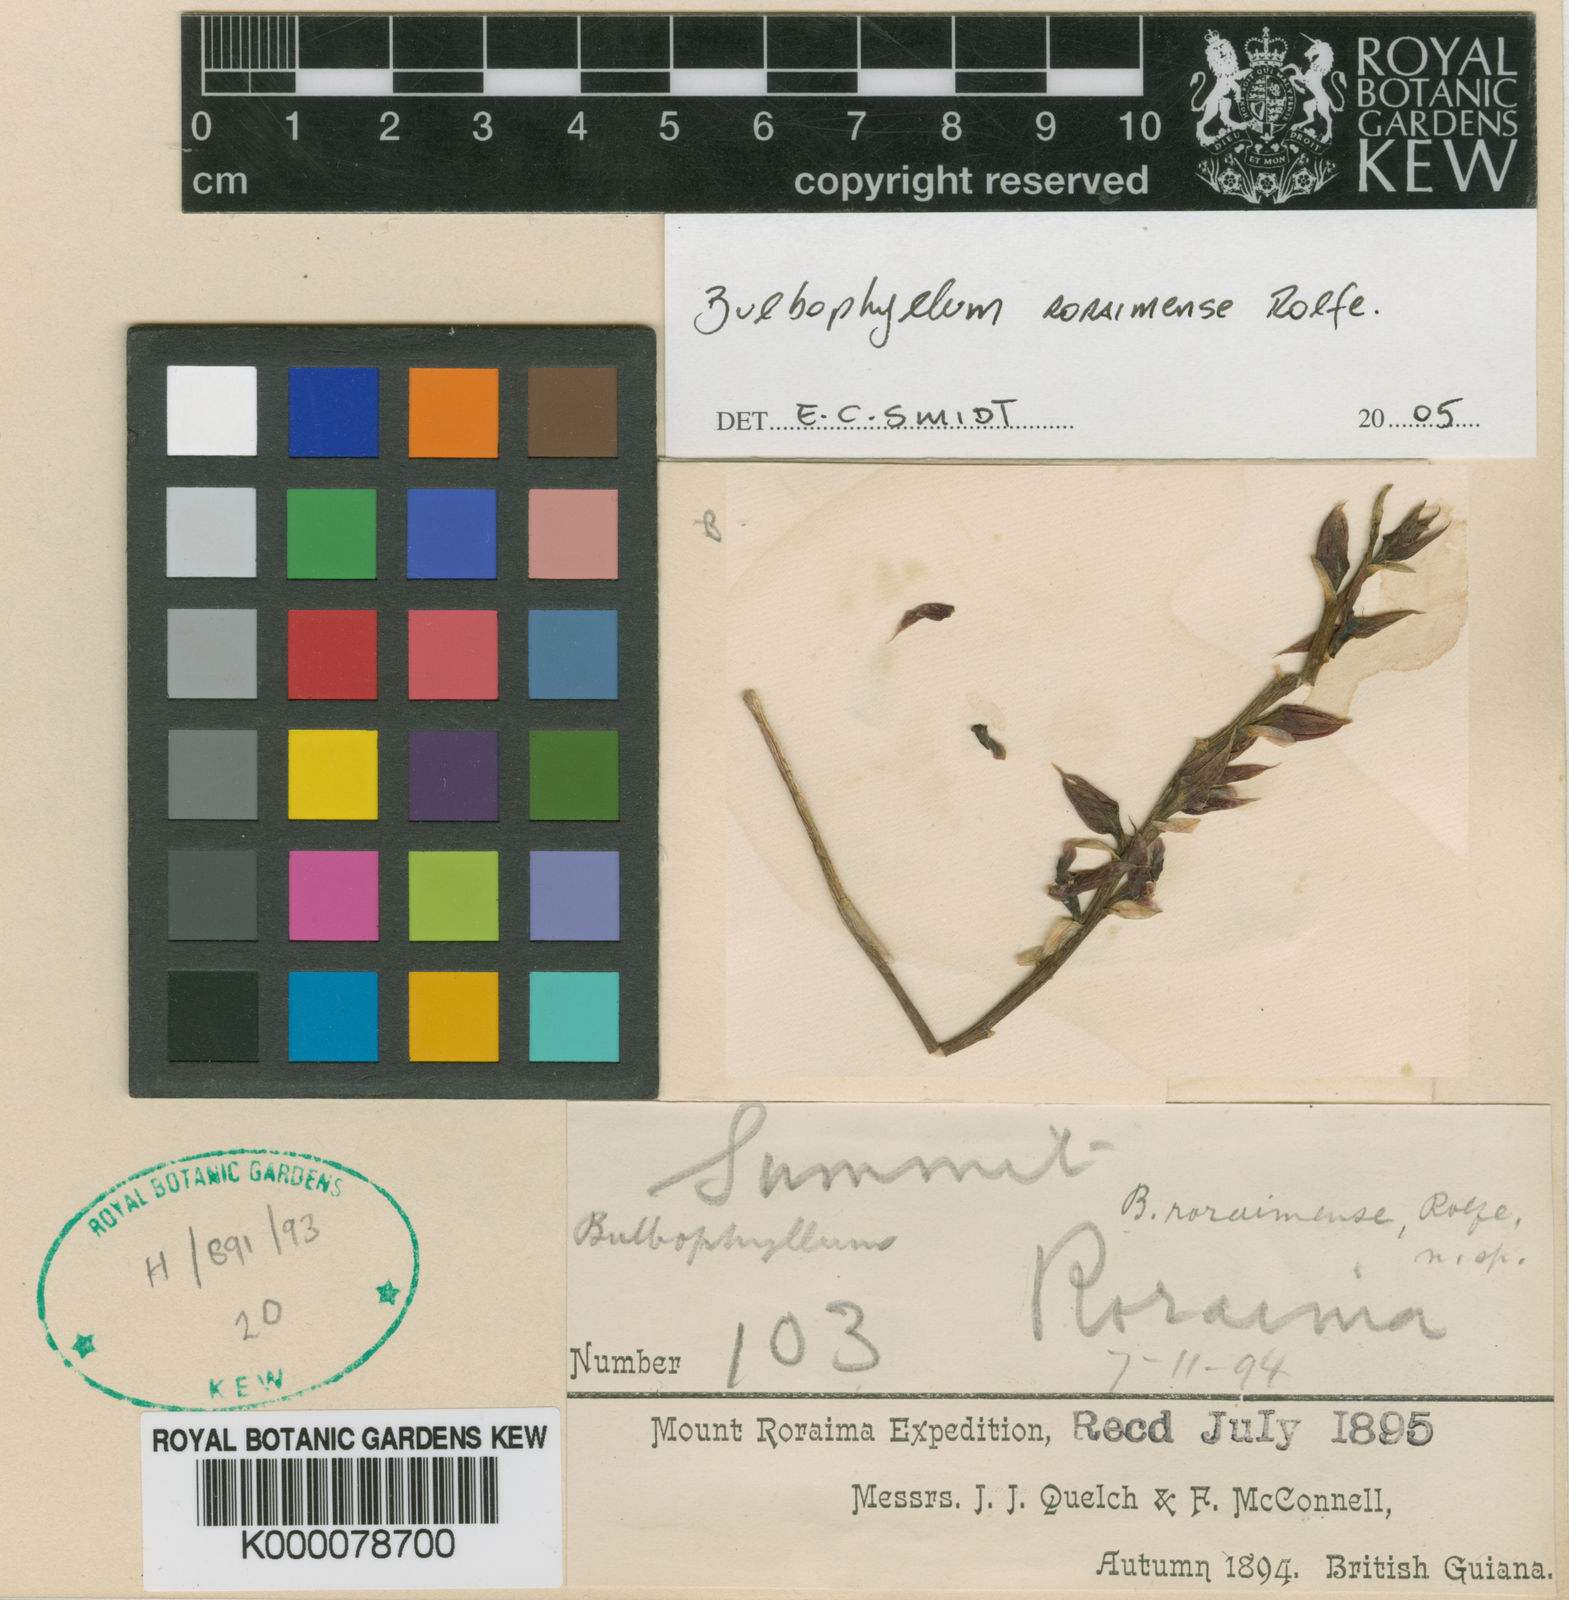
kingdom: Plantae
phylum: Tracheophyta
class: Liliopsida
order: Asparagales
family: Orchidaceae
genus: Bulbophyllum
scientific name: Bulbophyllum roraimense
